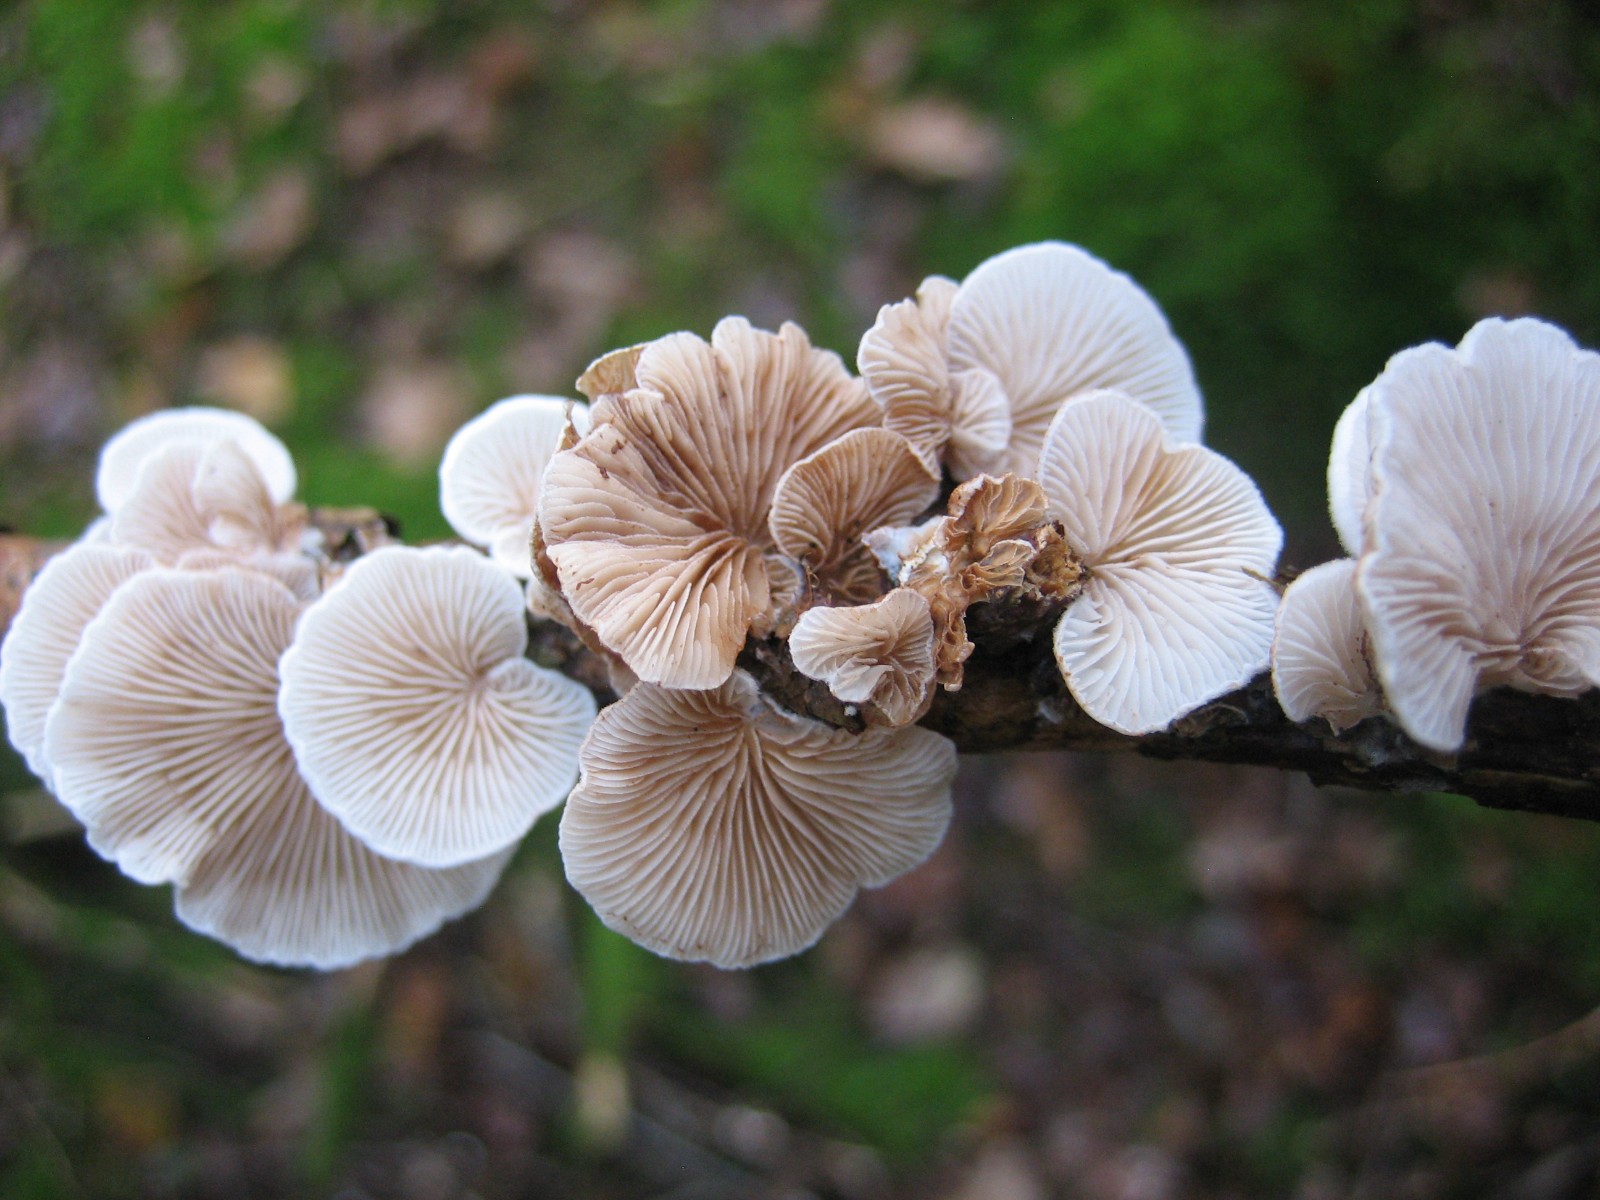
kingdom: Fungi
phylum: Basidiomycota
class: Agaricomycetes
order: Agaricales
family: Crepidotaceae
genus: Crepidotus
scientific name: Crepidotus
